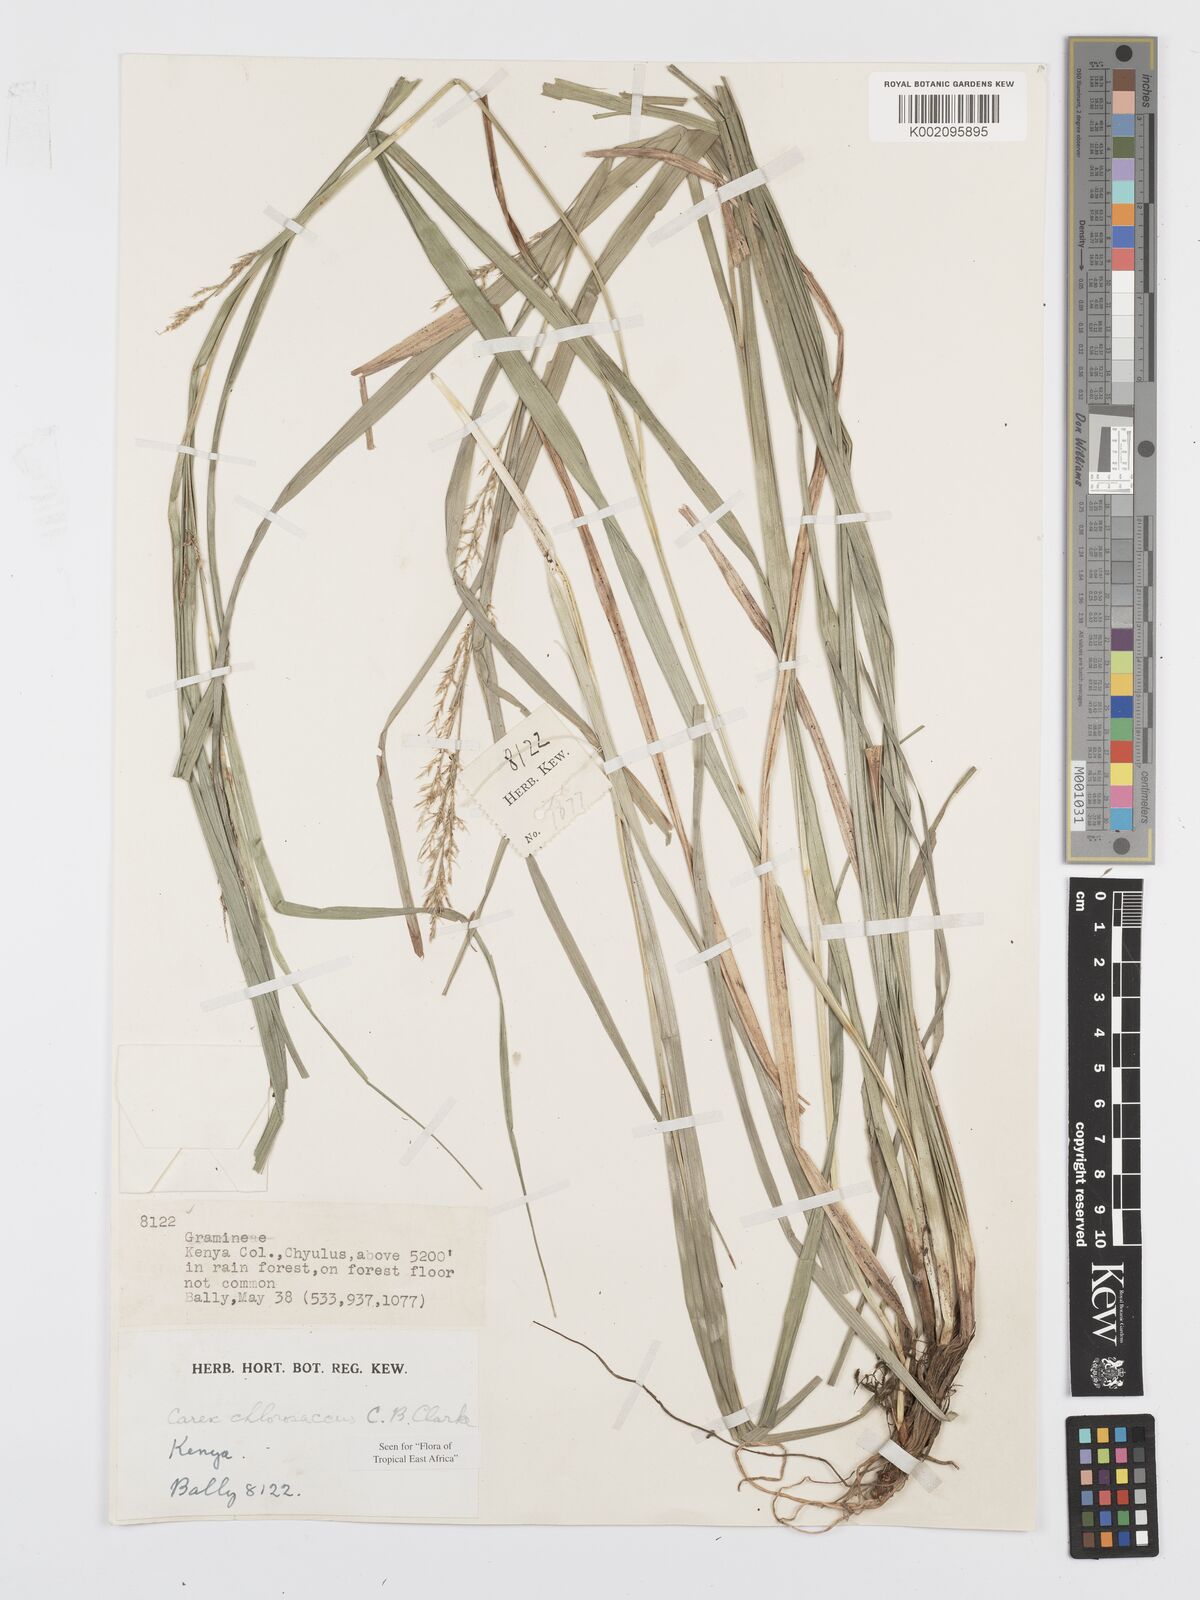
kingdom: Plantae
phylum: Tracheophyta
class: Liliopsida
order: Poales
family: Cyperaceae
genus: Carex
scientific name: Carex chlorosaccus
